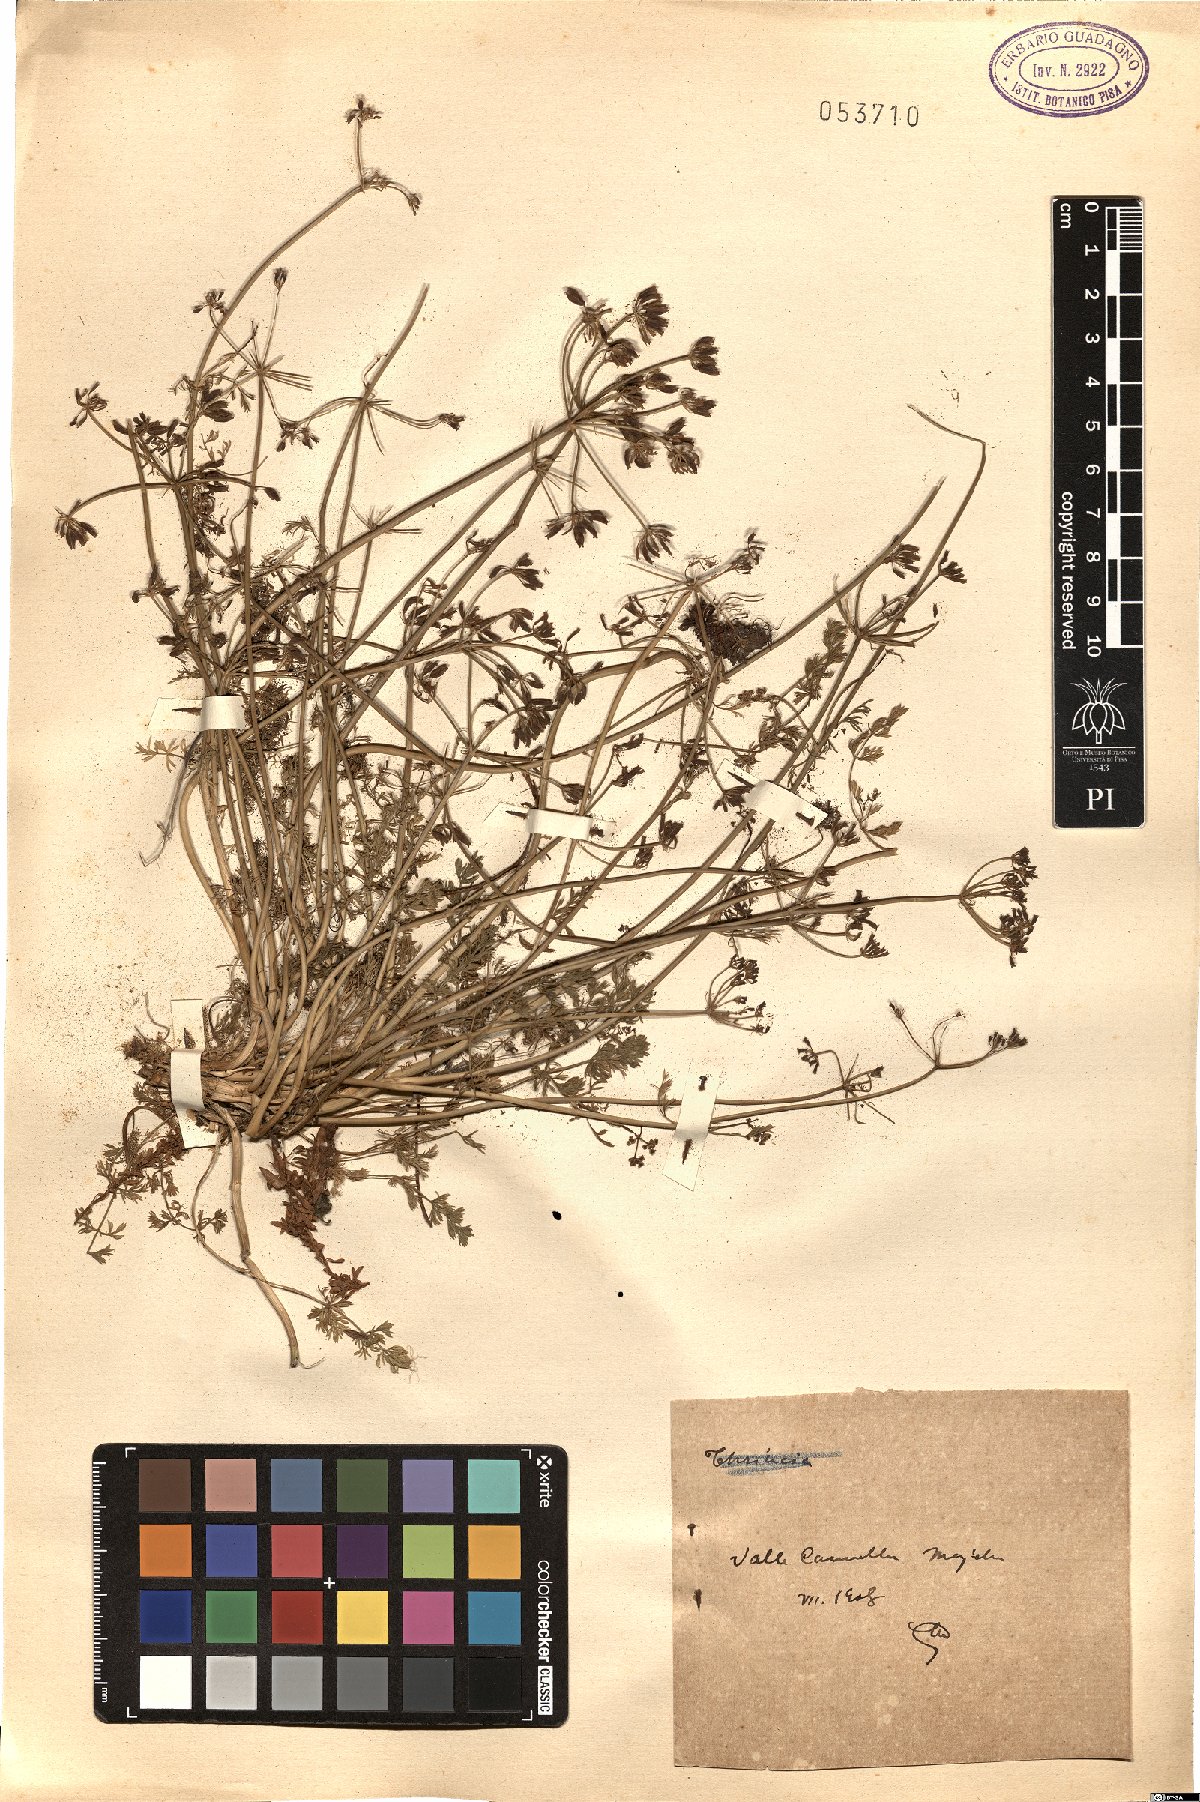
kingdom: Plantae
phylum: Tracheophyta
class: Magnoliopsida
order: Apiales
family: Apiaceae
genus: Carum
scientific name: Carum
